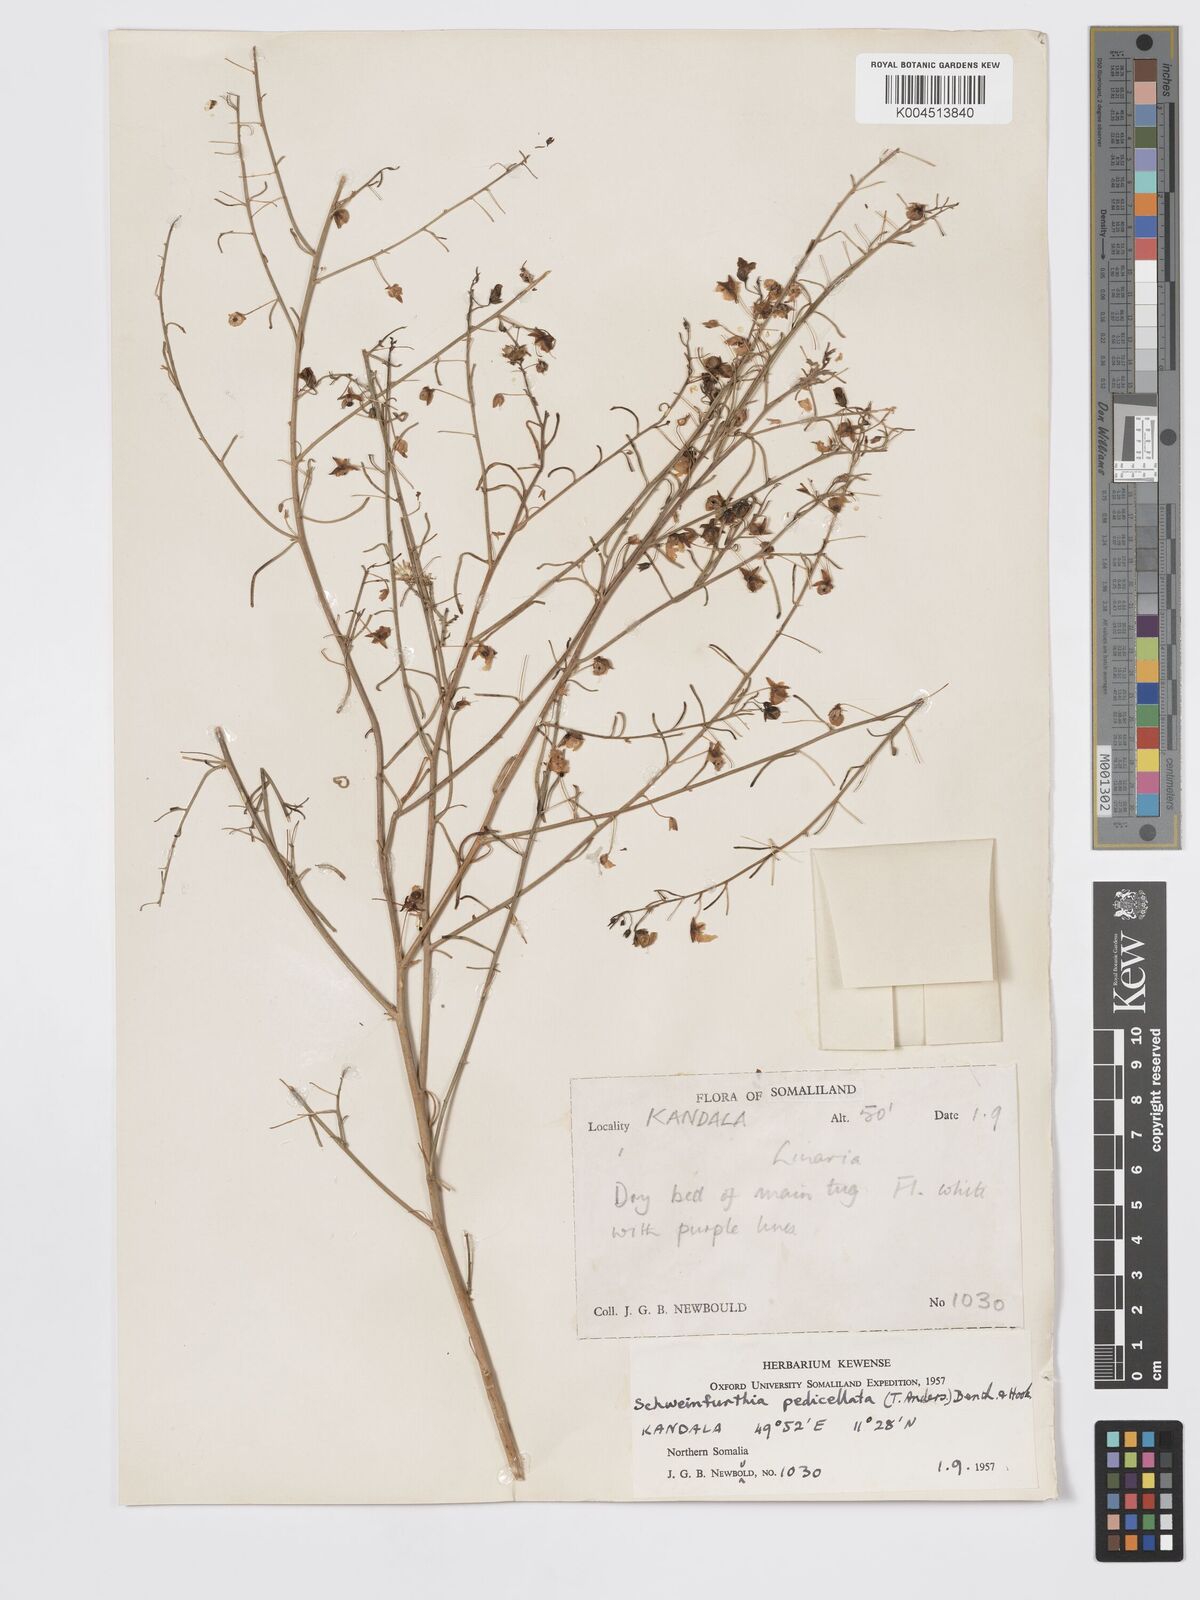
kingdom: Plantae
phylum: Tracheophyta
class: Magnoliopsida
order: Lamiales
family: Plantaginaceae
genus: Schweinfurthia
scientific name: Schweinfurthia pedicellata
